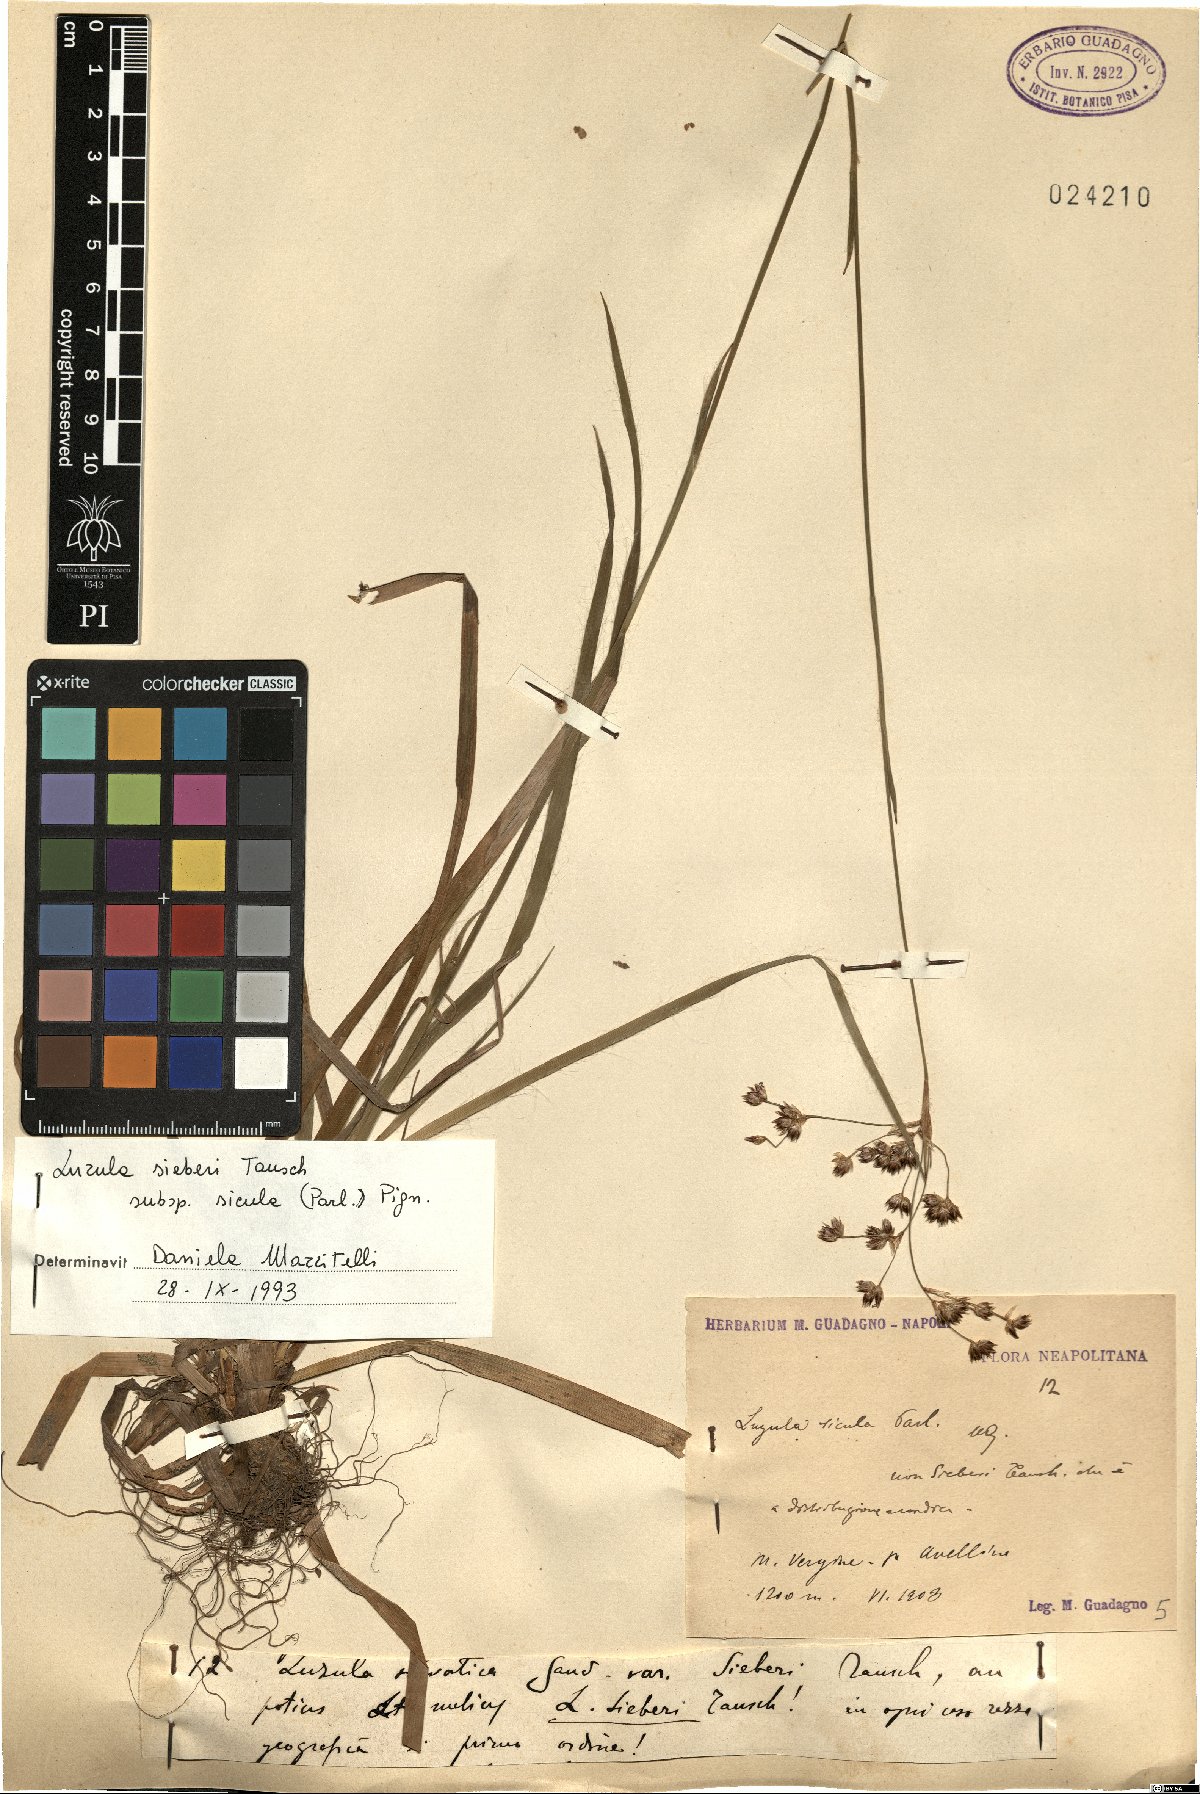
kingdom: Plantae
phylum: Tracheophyta
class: Liliopsida
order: Poales
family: Juncaceae
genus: Luzula
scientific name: Luzula sylvatica
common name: Great wood-rush
